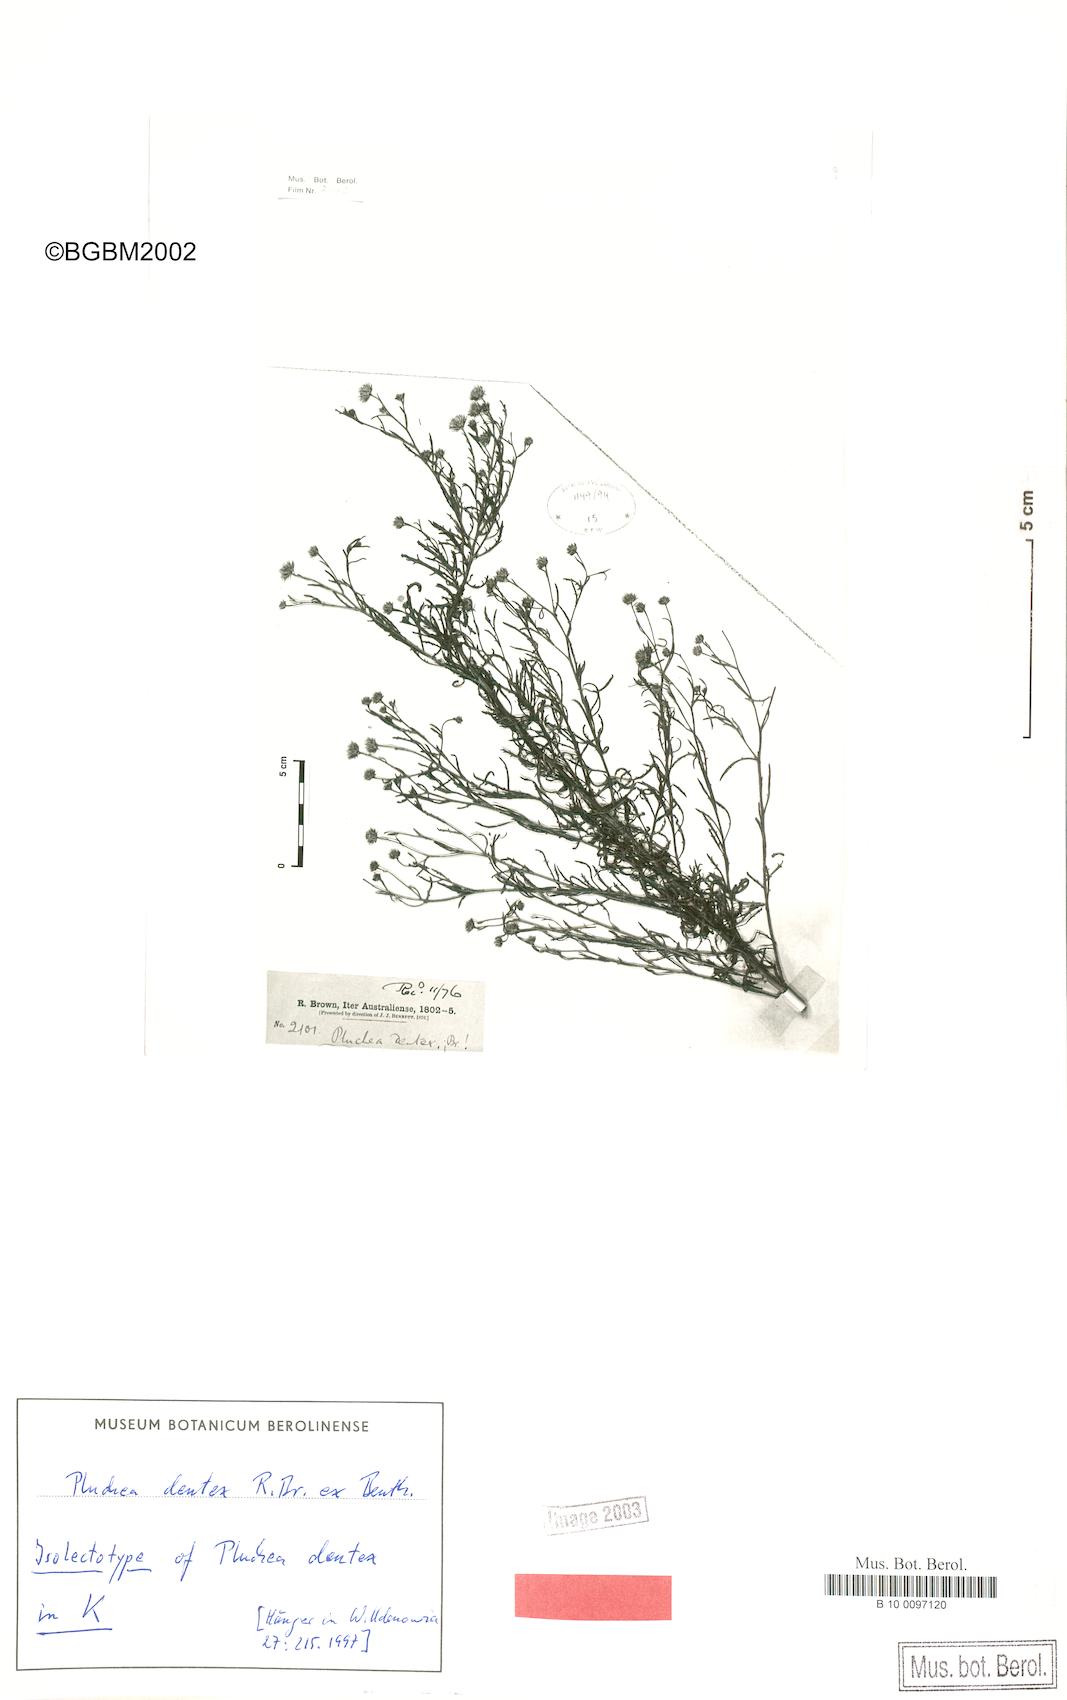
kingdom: Plantae
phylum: Tracheophyta
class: Magnoliopsida
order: Asterales
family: Asteraceae
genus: Pluchea
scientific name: Pluchea dentex
